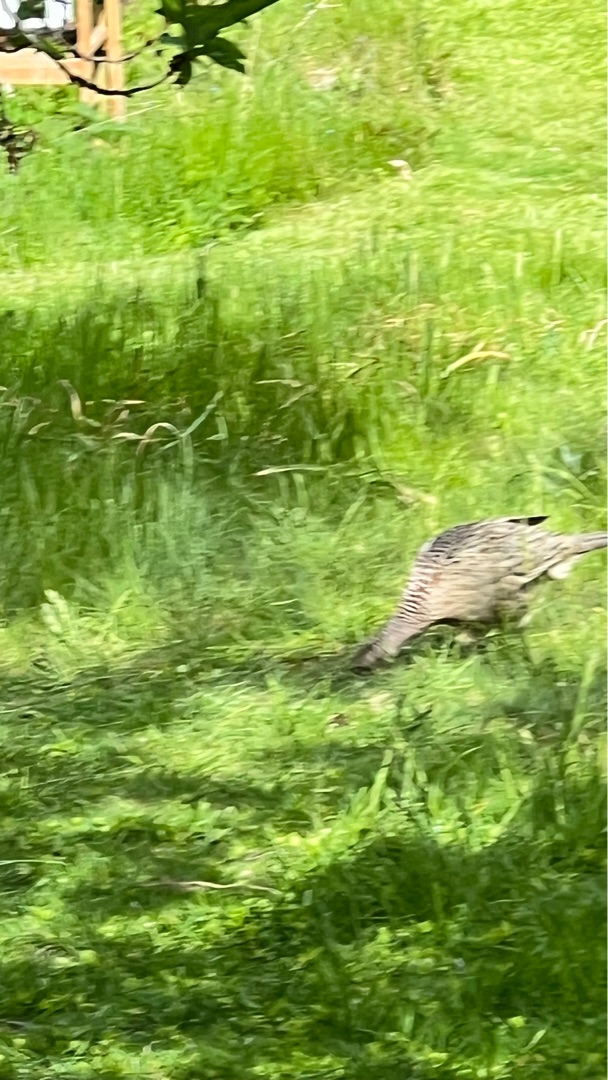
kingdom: Animalia
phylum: Chordata
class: Aves
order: Galliformes
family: Phasianidae
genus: Phasianus
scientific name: Phasianus colchicus
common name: Fasan
